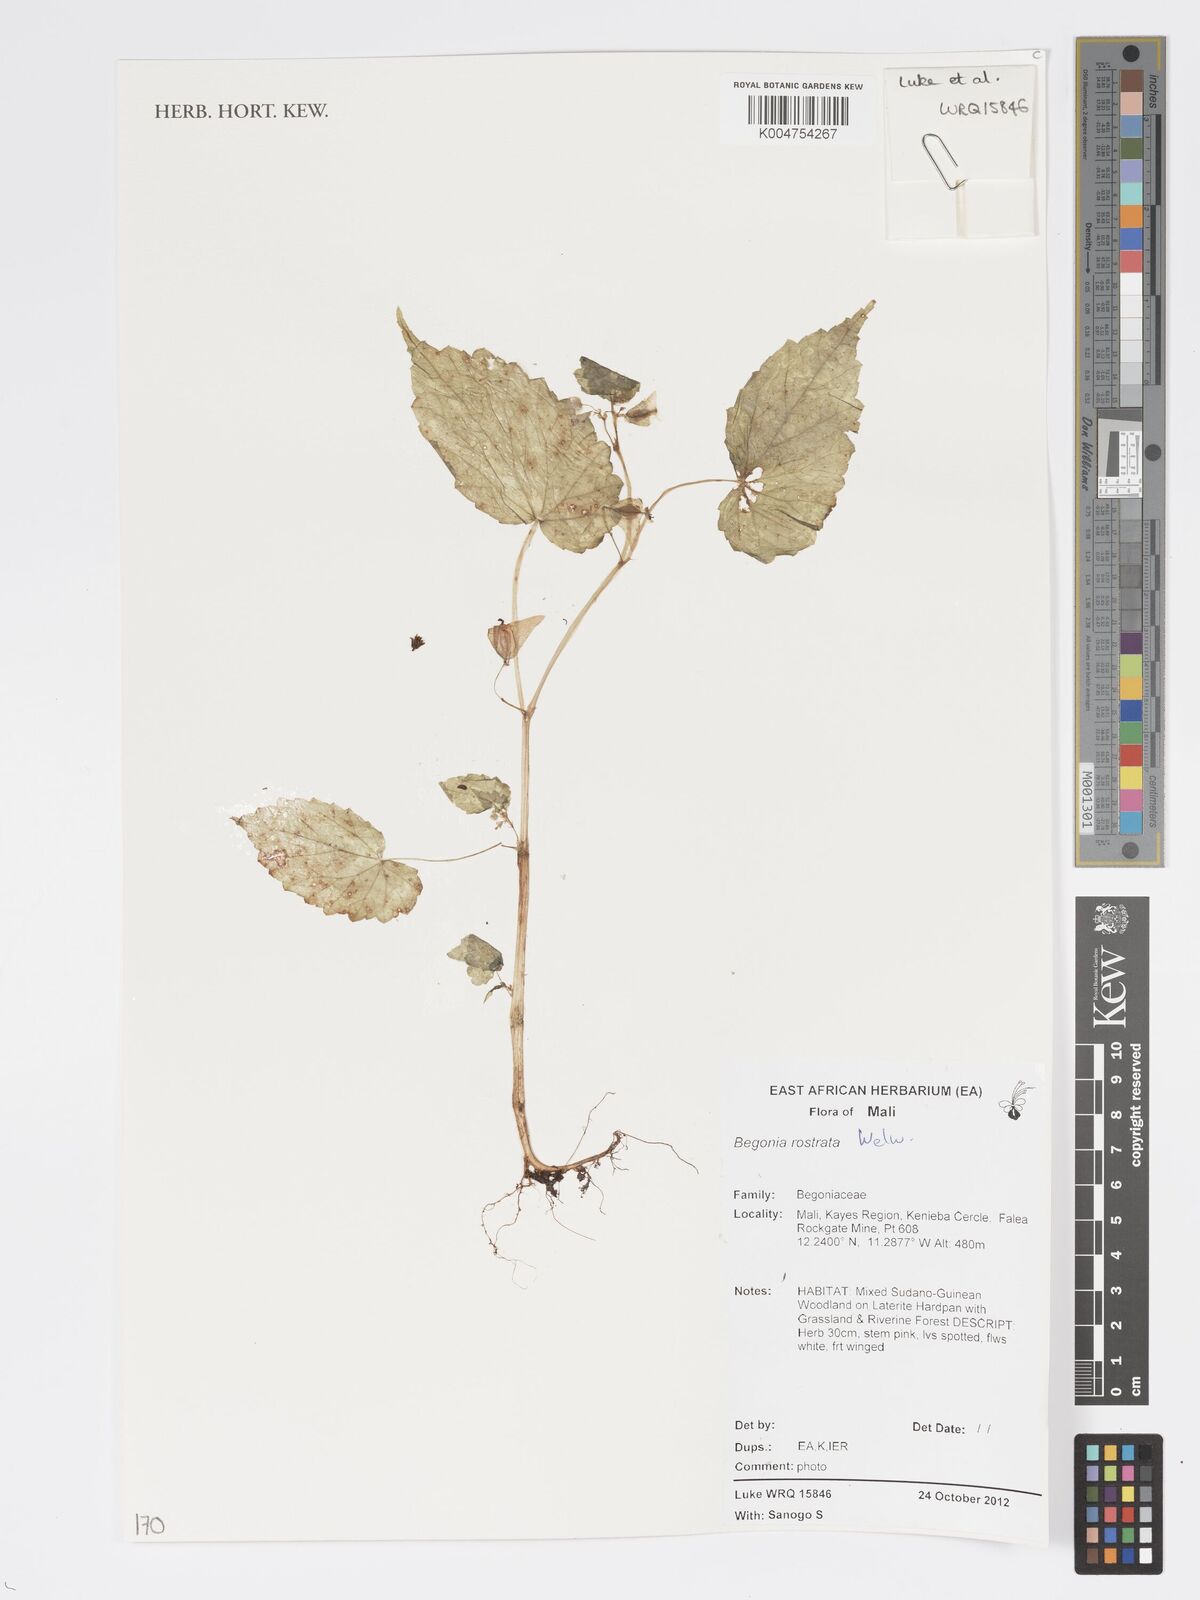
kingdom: Plantae
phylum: Tracheophyta
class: Magnoliopsida
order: Cucurbitales
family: Begoniaceae
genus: Begonia
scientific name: Begonia rostrata
